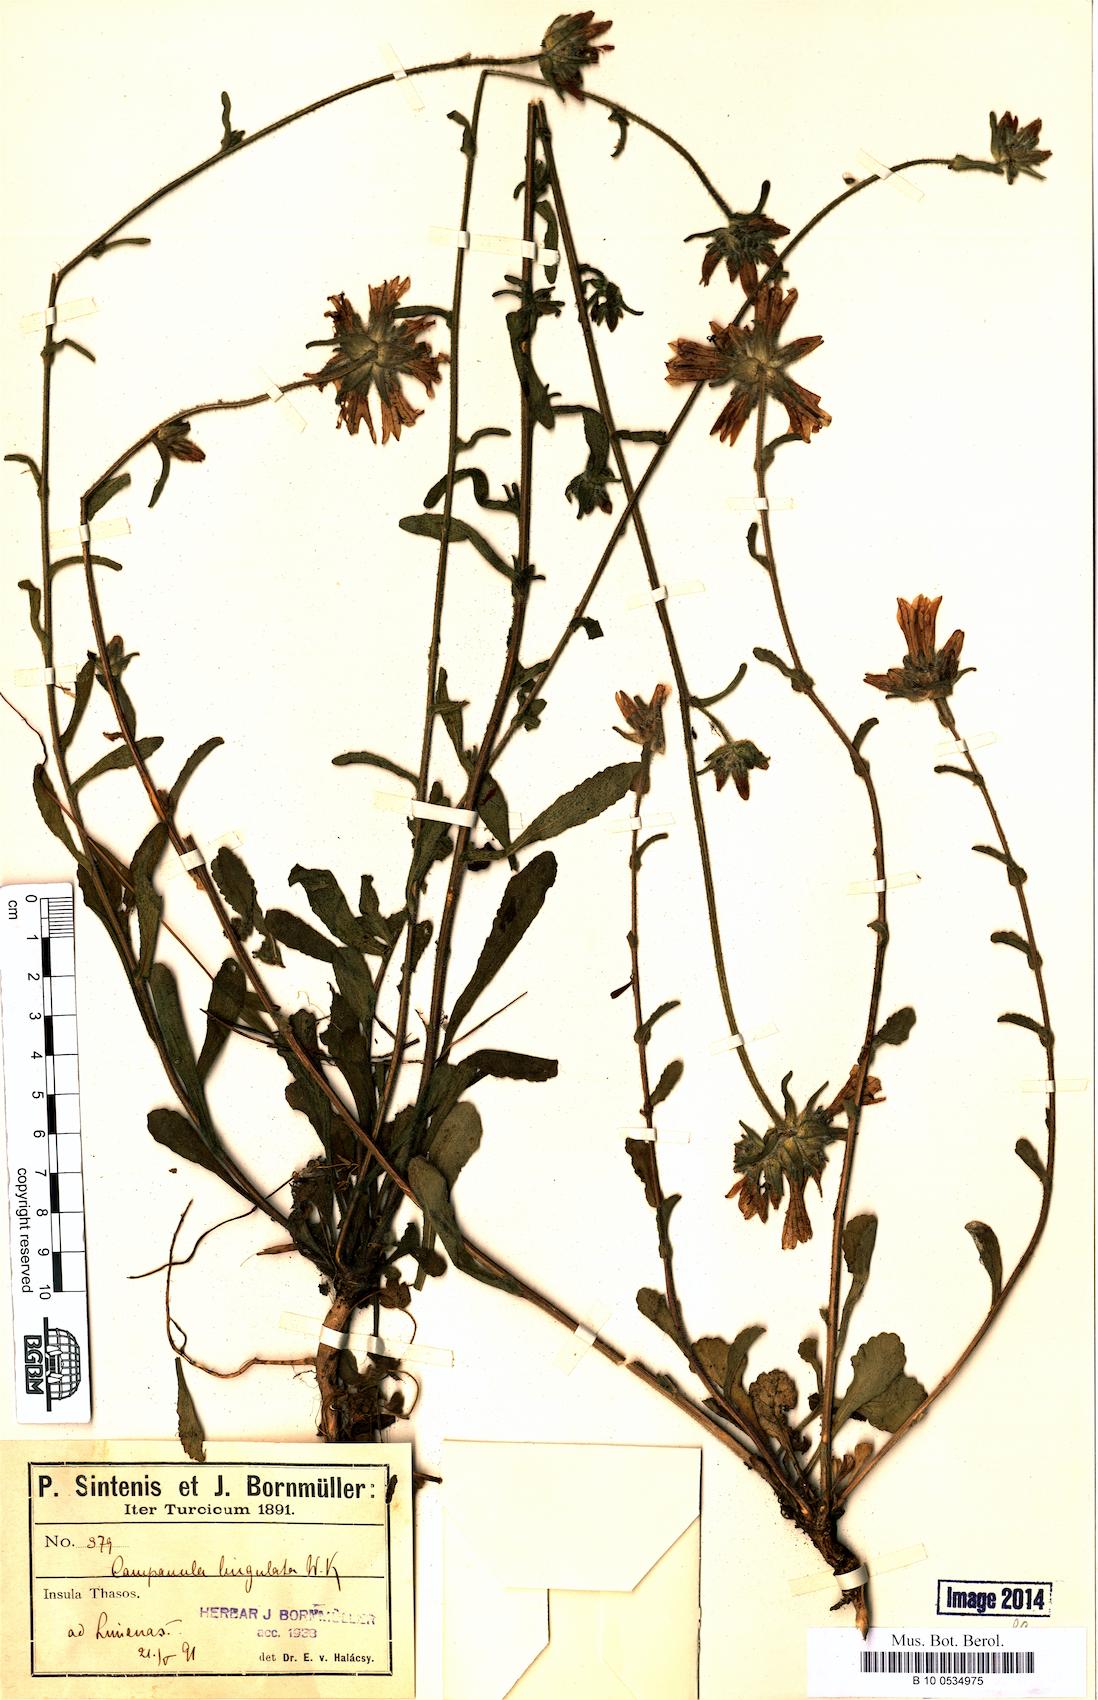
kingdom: Plantae
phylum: Tracheophyta
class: Magnoliopsida
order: Asterales
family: Campanulaceae
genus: Campanula
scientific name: Campanula lingulata
